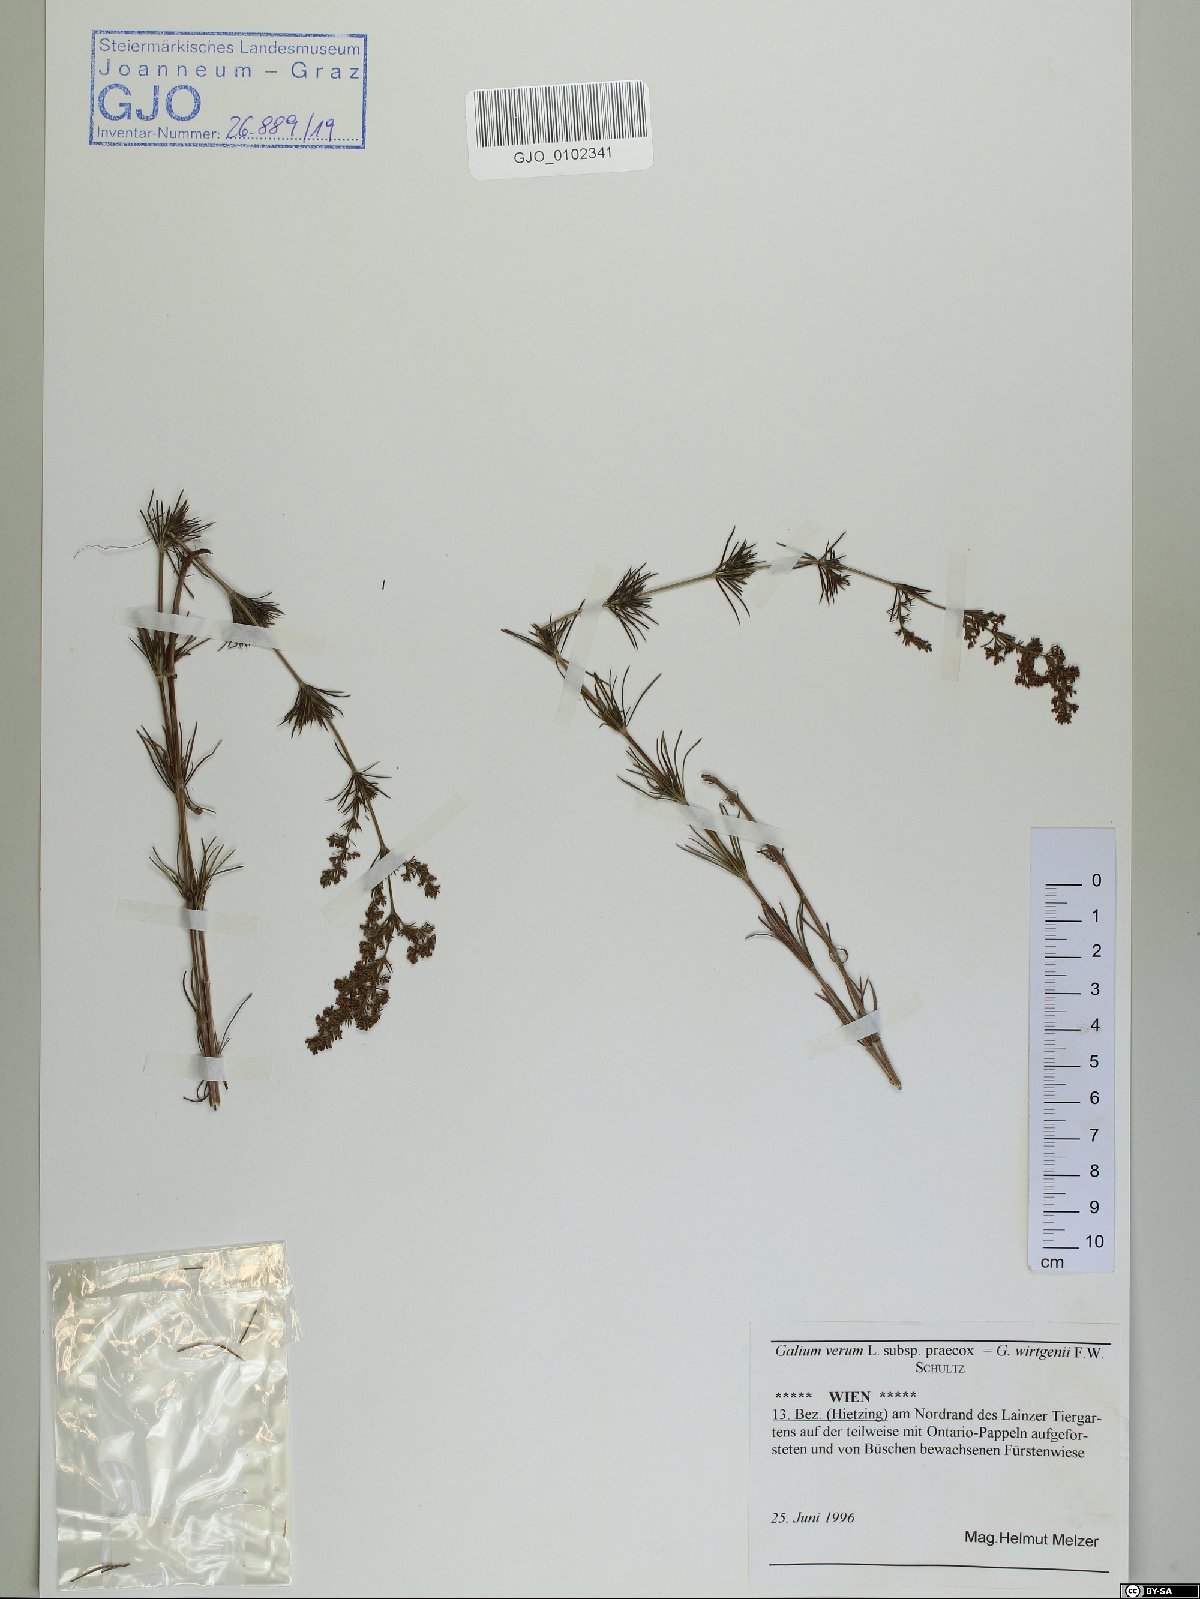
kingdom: Plantae
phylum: Tracheophyta
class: Magnoliopsida
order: Gentianales
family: Rubiaceae
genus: Galium
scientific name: Galium verum
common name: Lady's bedstraw
